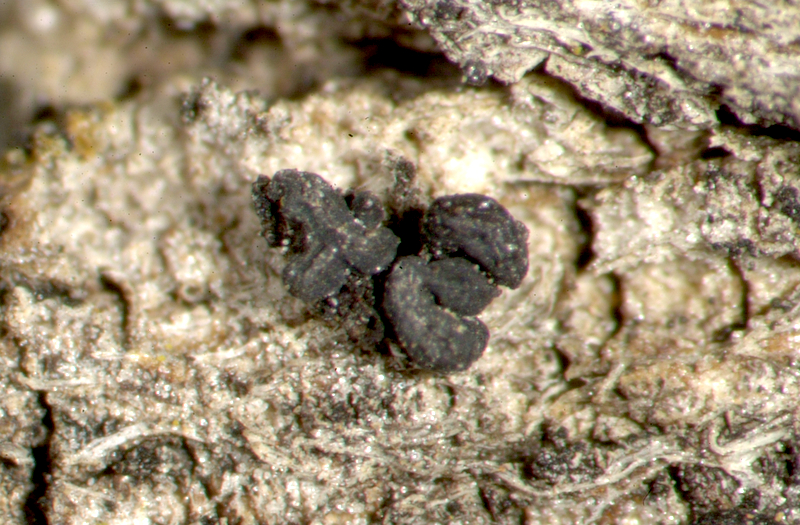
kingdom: Fungi
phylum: Ascomycota
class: Candelariomycetes
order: Candelariales
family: Candelariaceae
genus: Candelaria
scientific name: Candelaria
